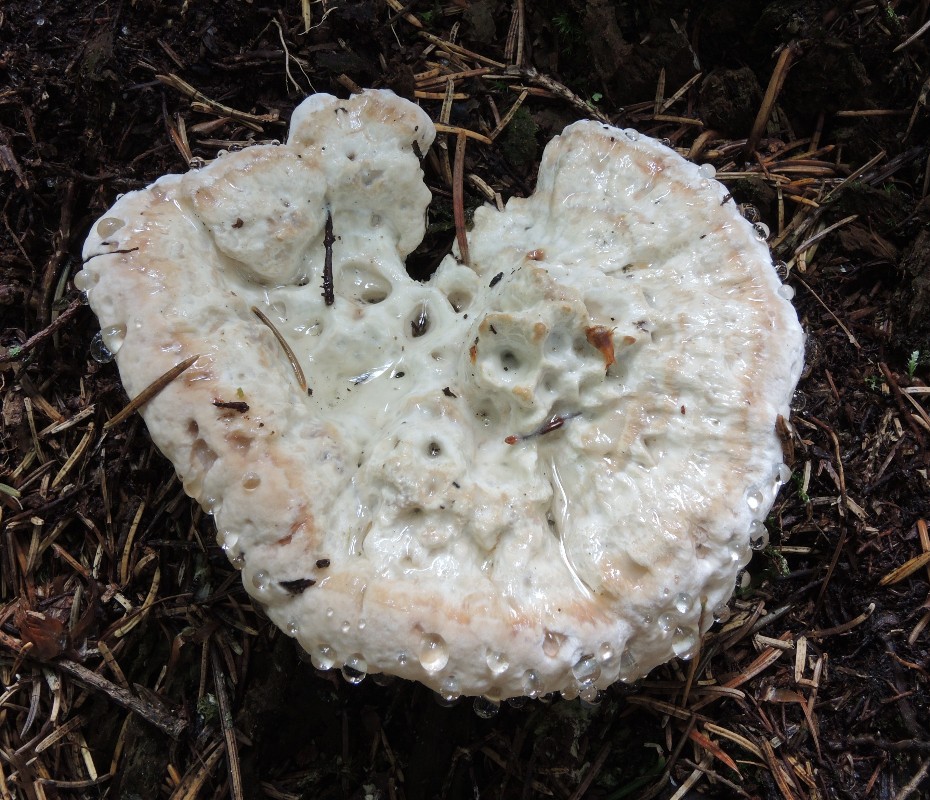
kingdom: Fungi
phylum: Basidiomycota
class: Agaricomycetes
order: Polyporales
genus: Calcipostia
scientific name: Calcipostia guttulata
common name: dråbe-kødporesvamp
